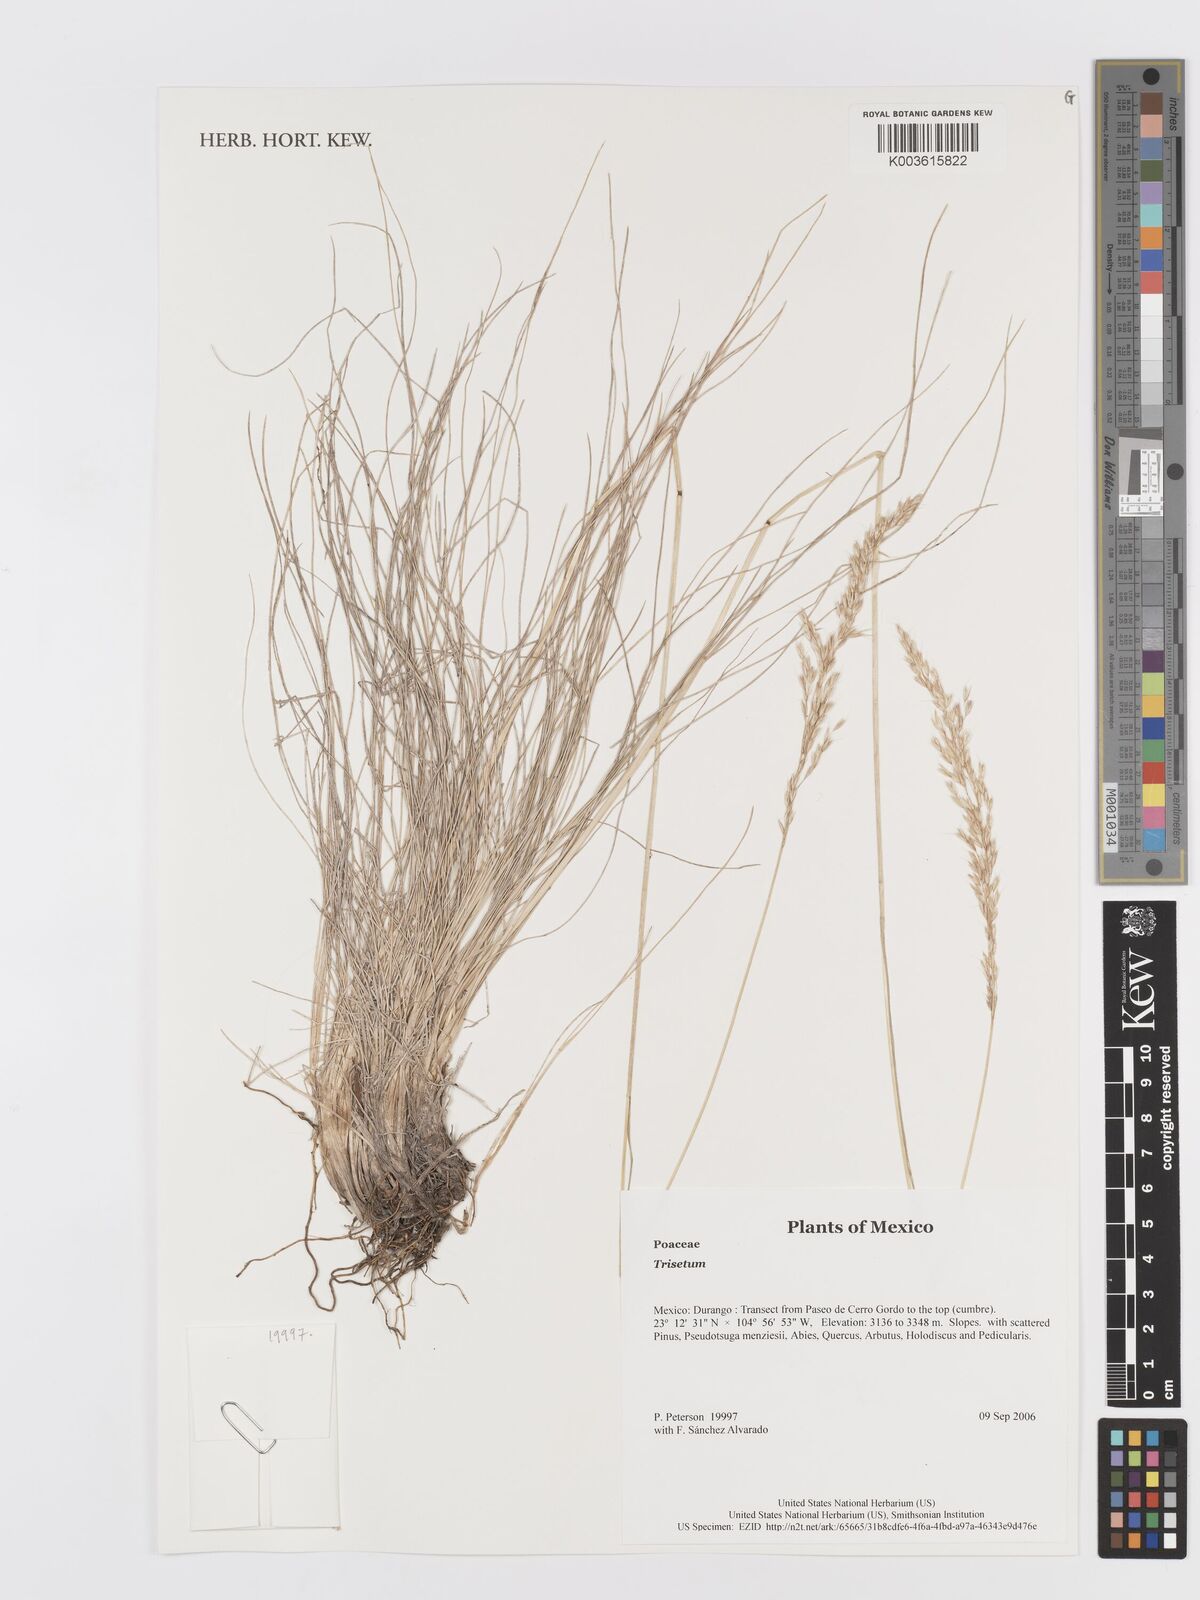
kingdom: Plantae
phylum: Tracheophyta
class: Liliopsida
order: Poales
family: Poaceae
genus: Trisetum
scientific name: Trisetum
